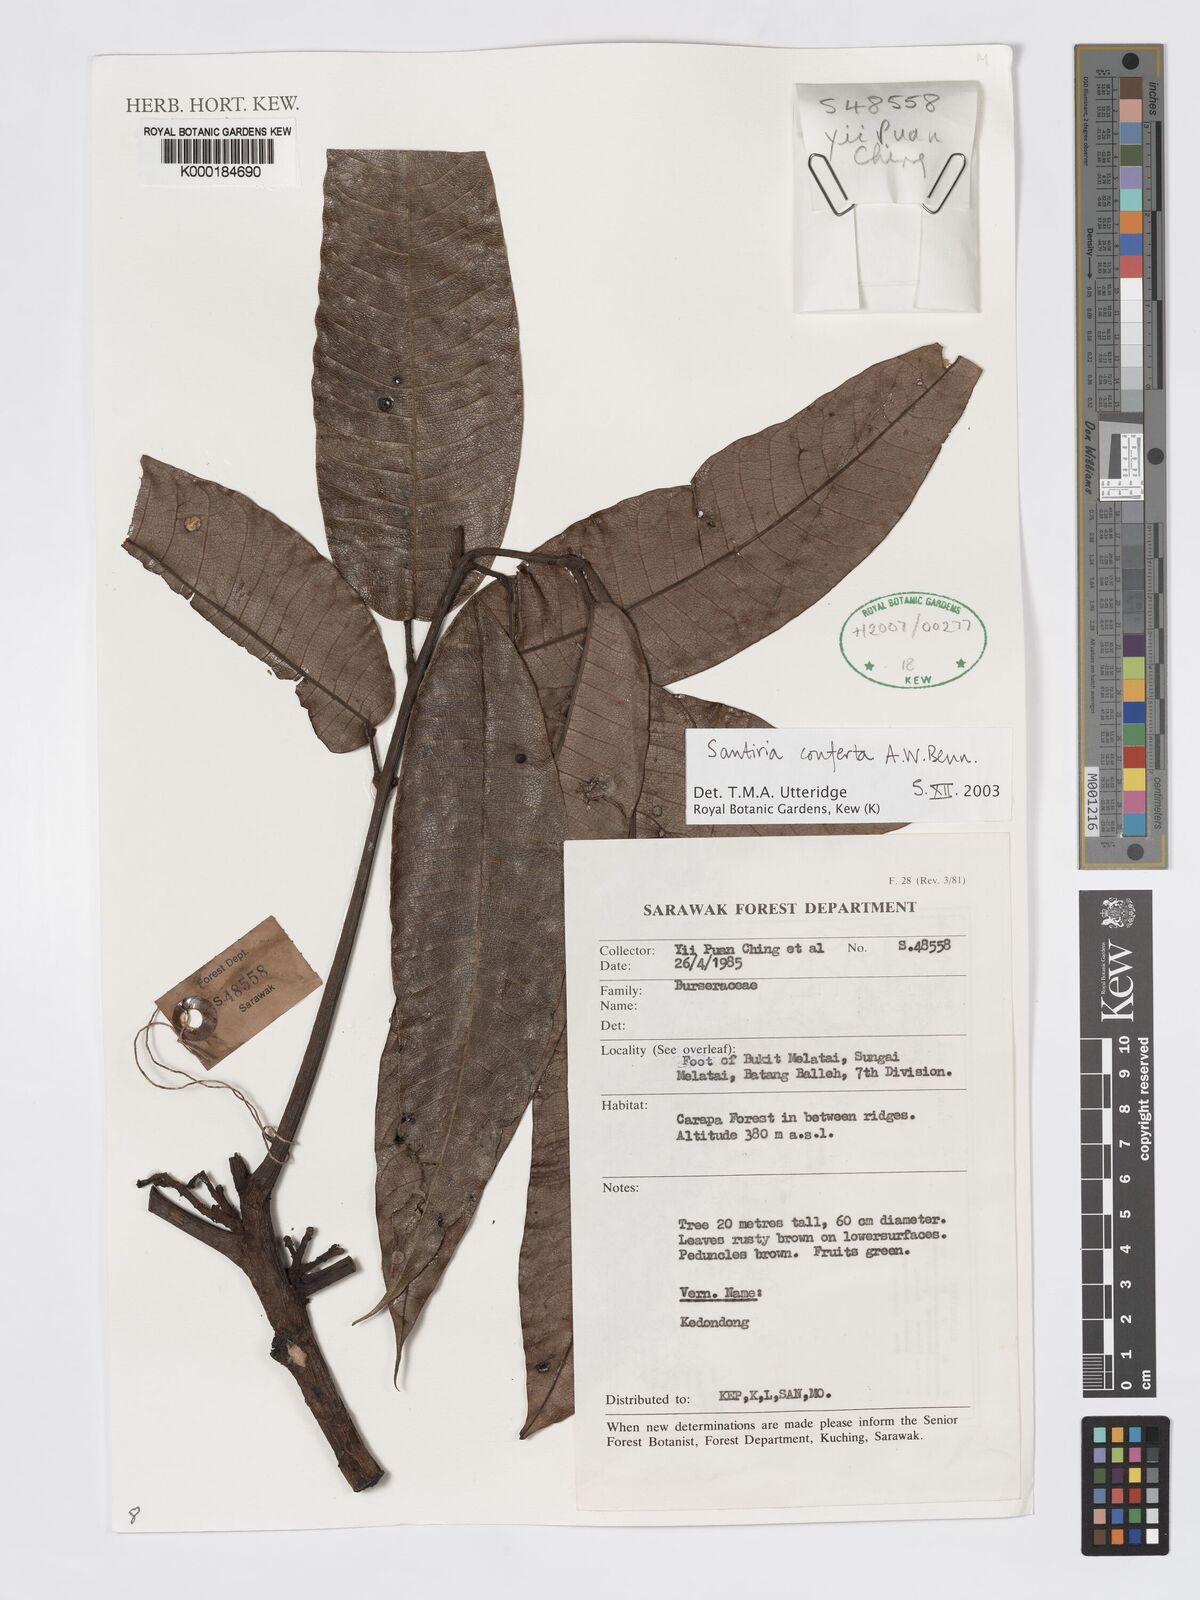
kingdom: Plantae
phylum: Tracheophyta
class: Magnoliopsida
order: Sapindales
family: Burseraceae
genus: Santiria
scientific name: Santiria conferta
